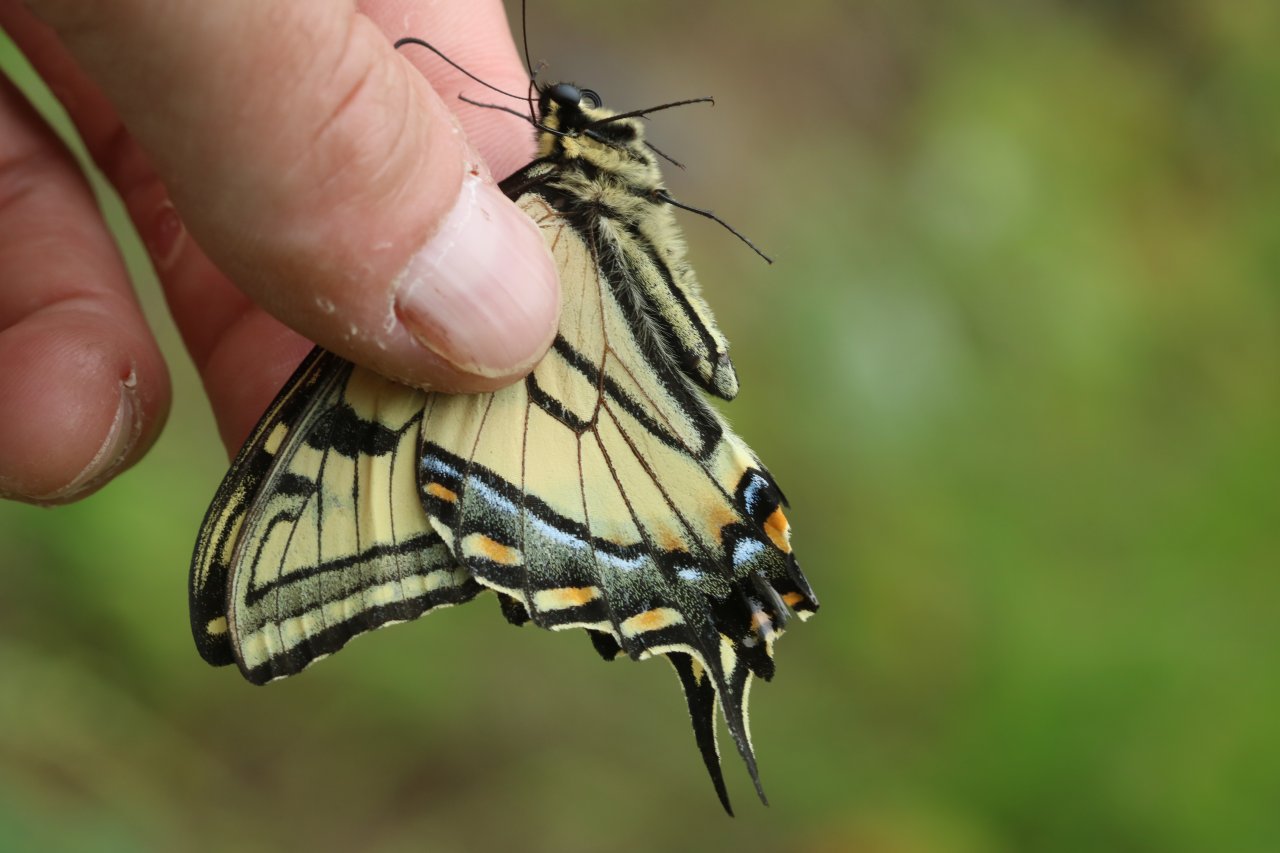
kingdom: Animalia
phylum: Arthropoda
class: Insecta
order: Lepidoptera
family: Papilionidae
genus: Pterourus
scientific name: Pterourus canadensis
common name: Canadian Tiger Swallowtail
